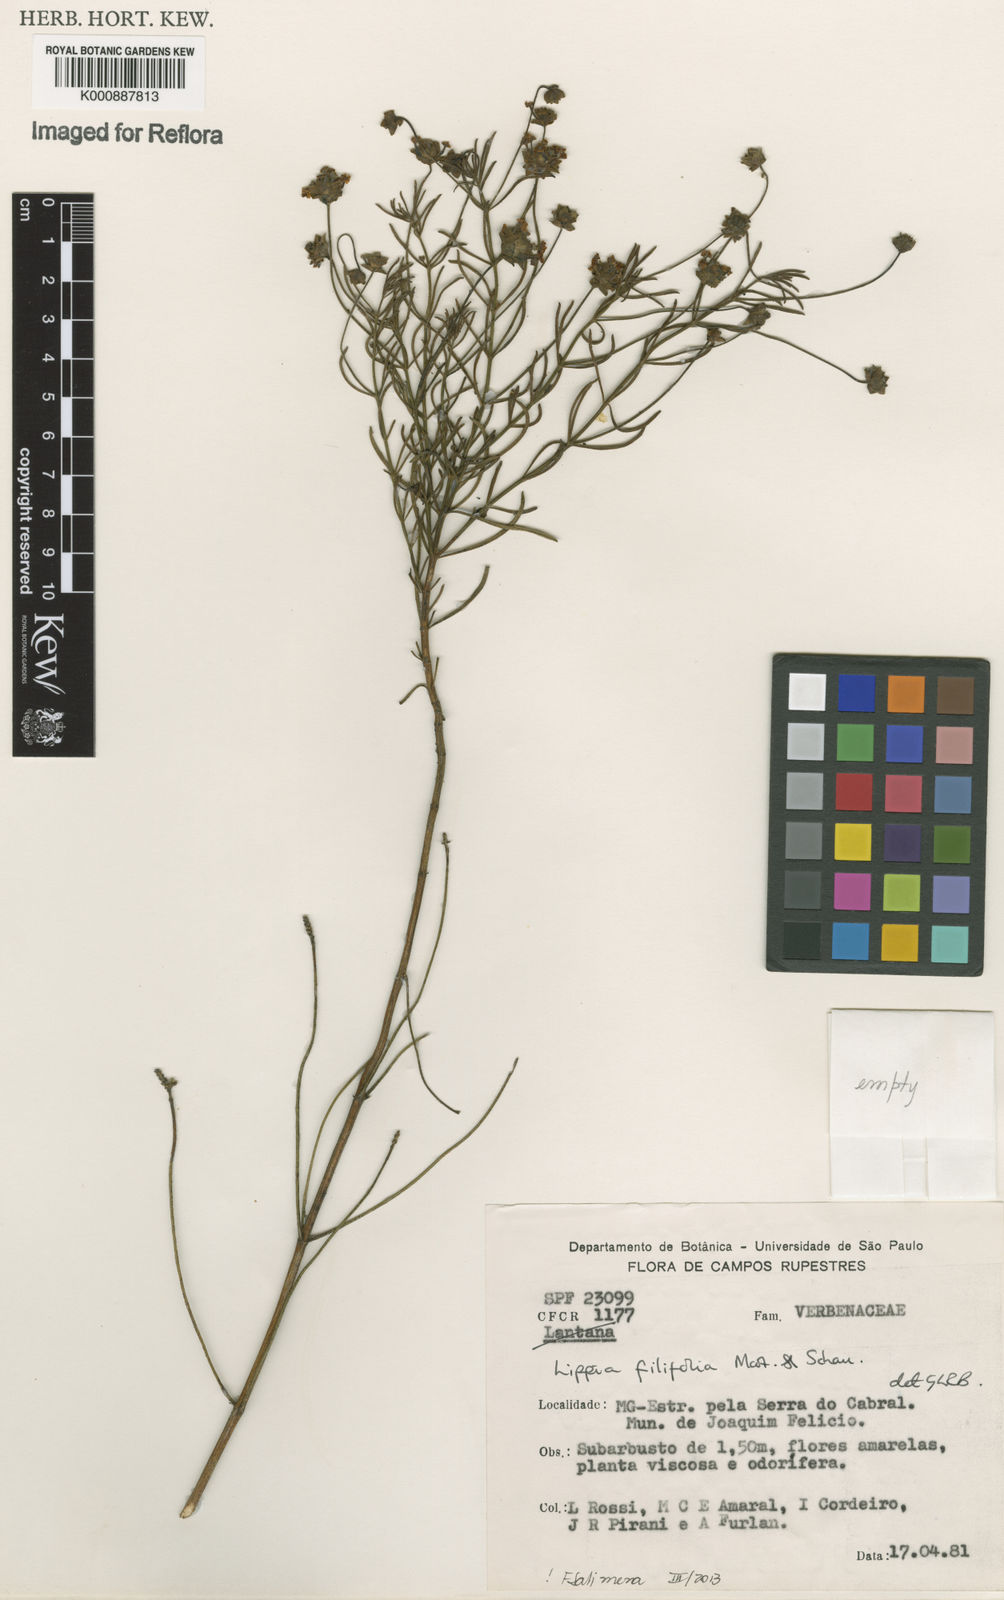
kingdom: Plantae
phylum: Tracheophyta
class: Magnoliopsida
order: Lamiales
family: Verbenaceae
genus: Lippia
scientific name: Lippia filifolia
